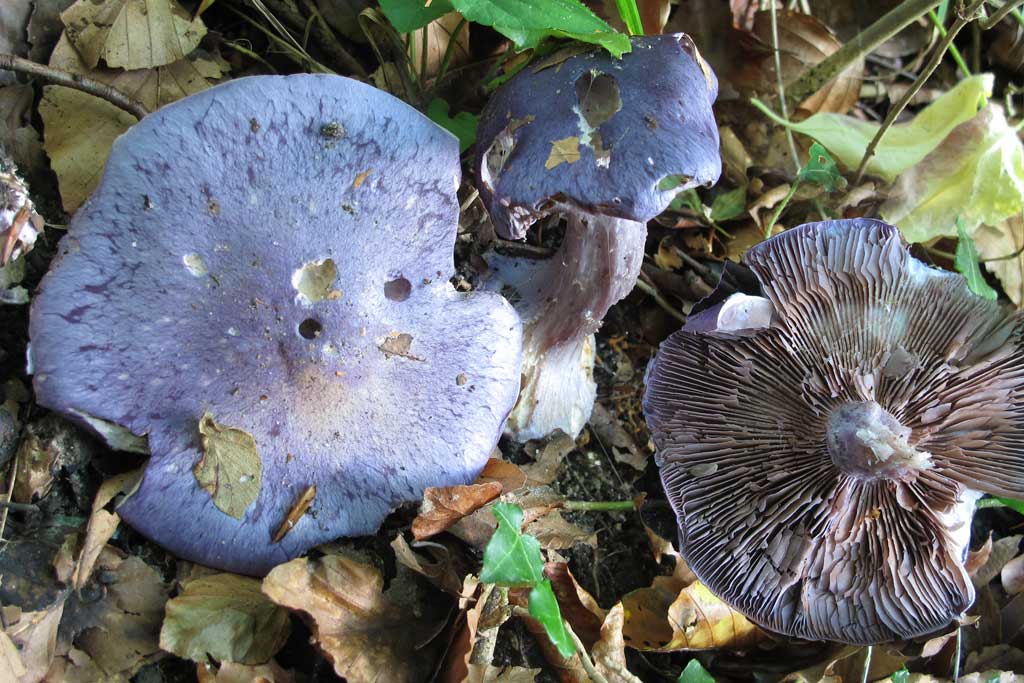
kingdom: Fungi
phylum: Basidiomycota
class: Agaricomycetes
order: Agaricales
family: Cortinariaceae
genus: Phlegmacium
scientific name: Phlegmacium eucaeruleum
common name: indigo-slørhat
